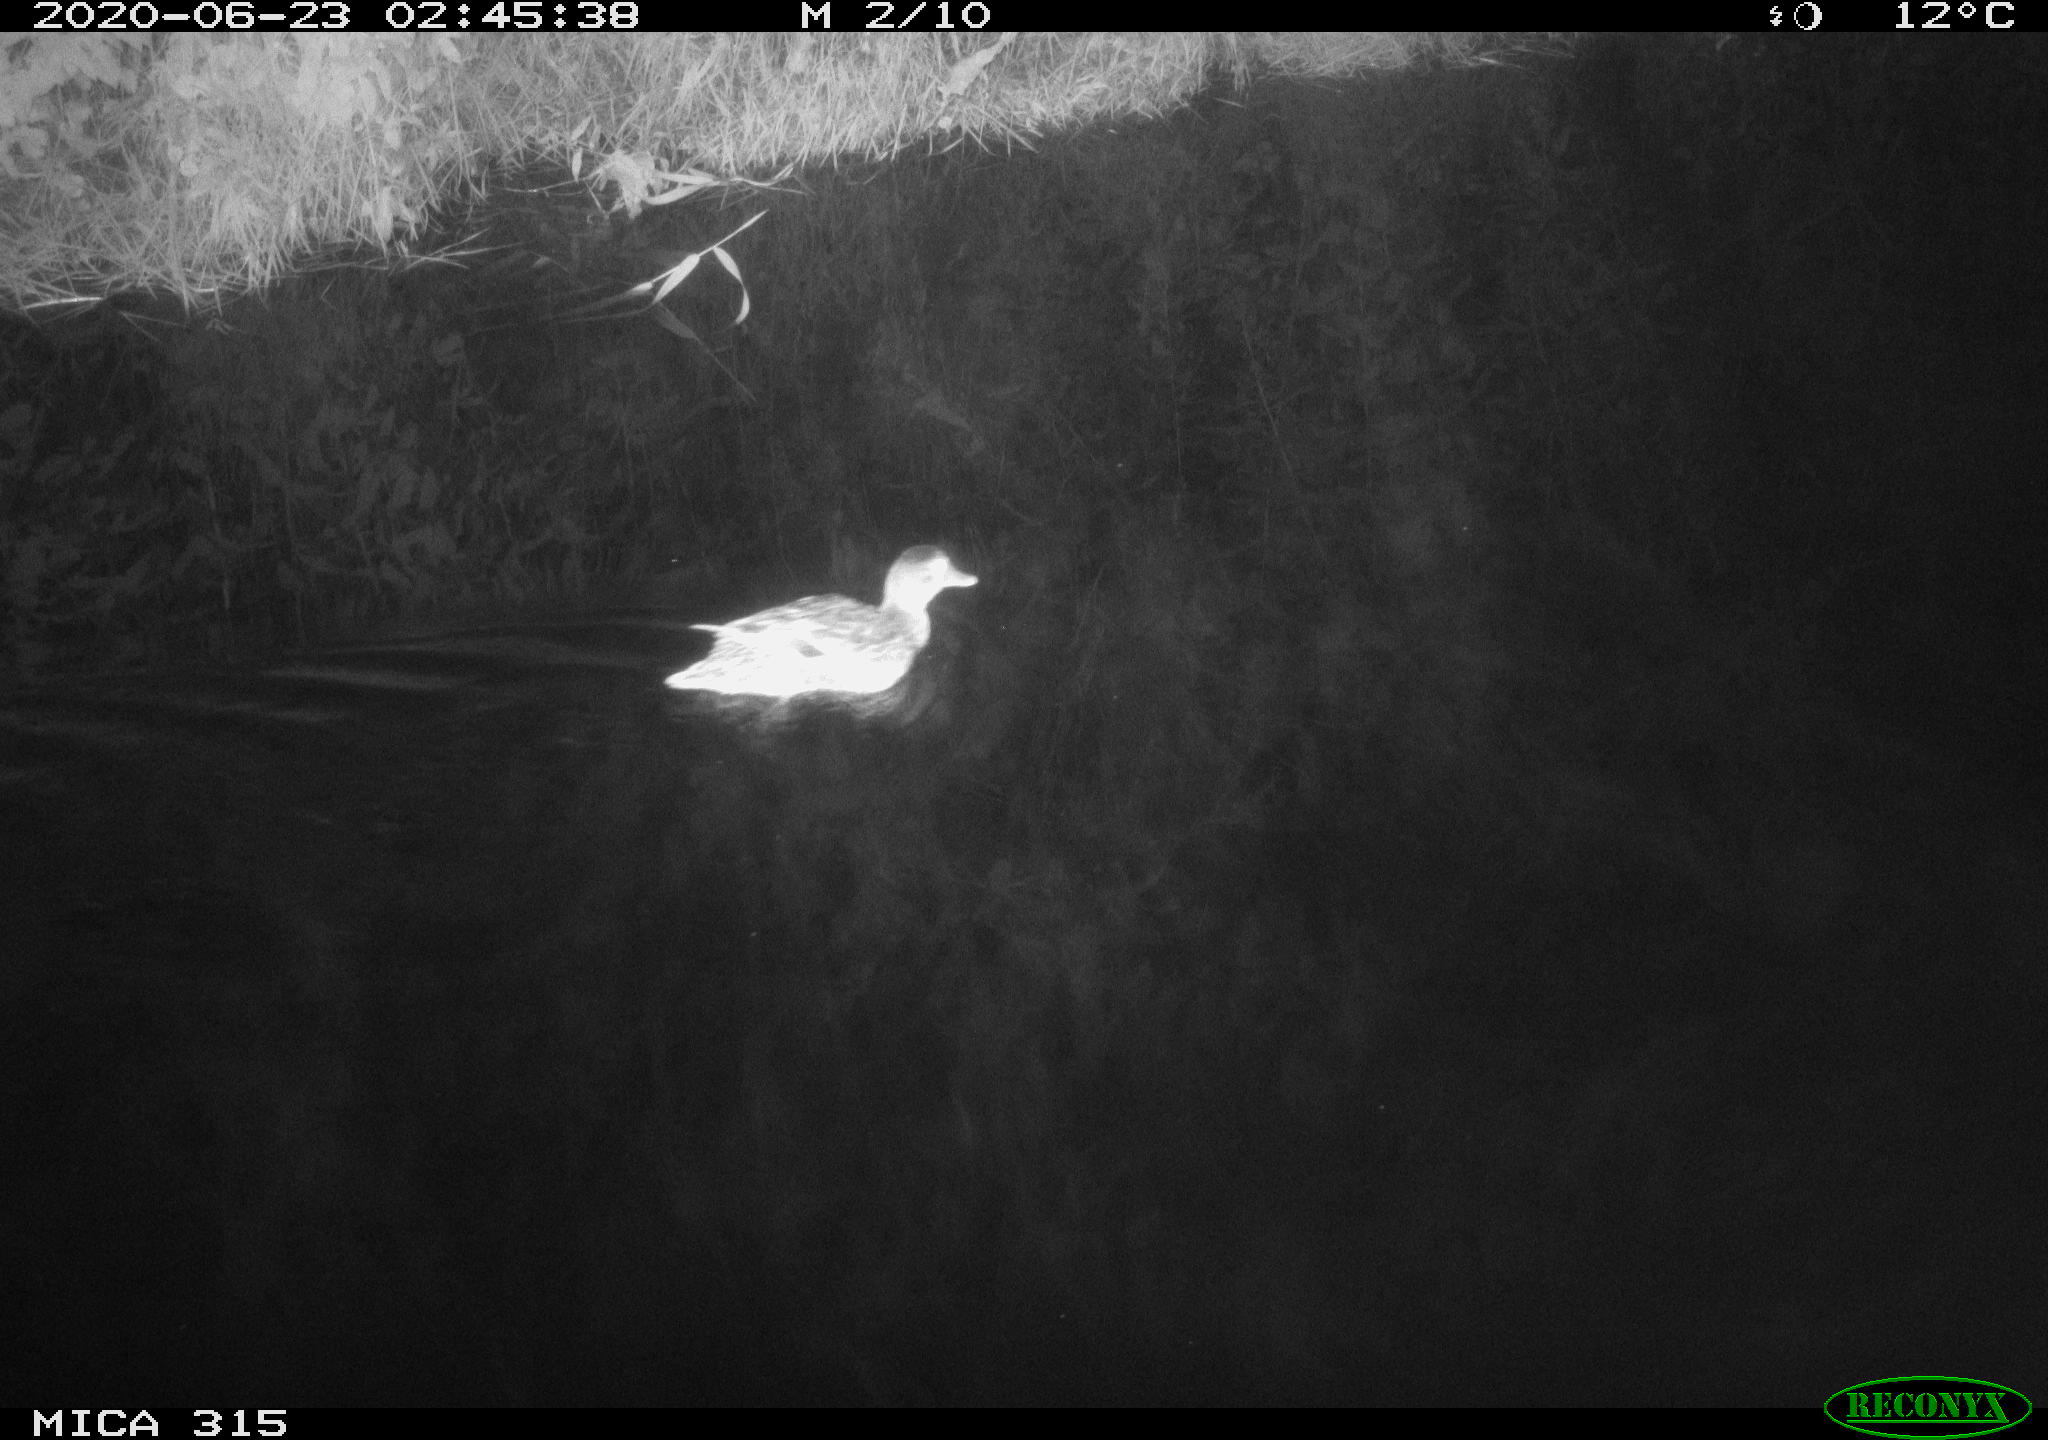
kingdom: Animalia
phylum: Chordata
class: Aves
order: Anseriformes
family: Anatidae
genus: Anas
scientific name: Anas platyrhynchos
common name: Mallard
